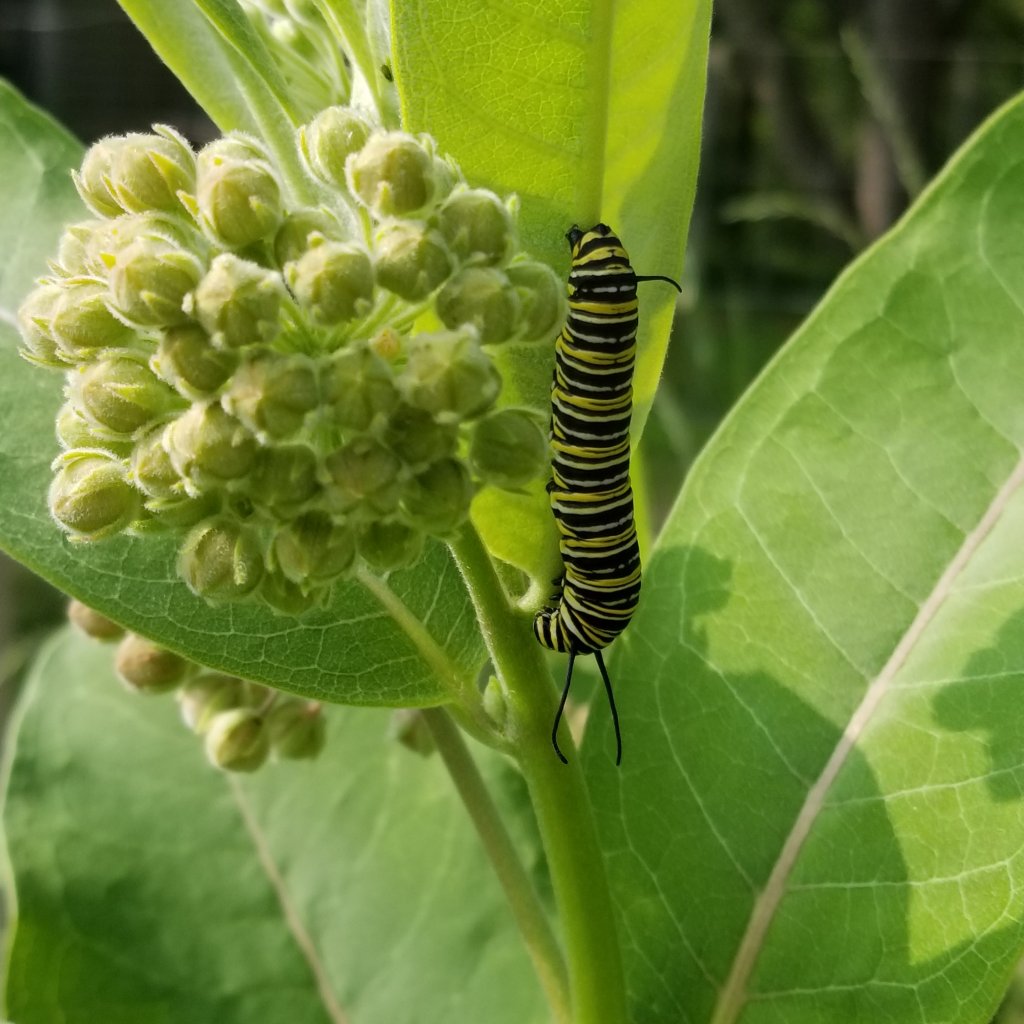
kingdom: Animalia
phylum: Arthropoda
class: Insecta
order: Lepidoptera
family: Nymphalidae
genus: Danaus
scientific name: Danaus plexippus
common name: Monarch
